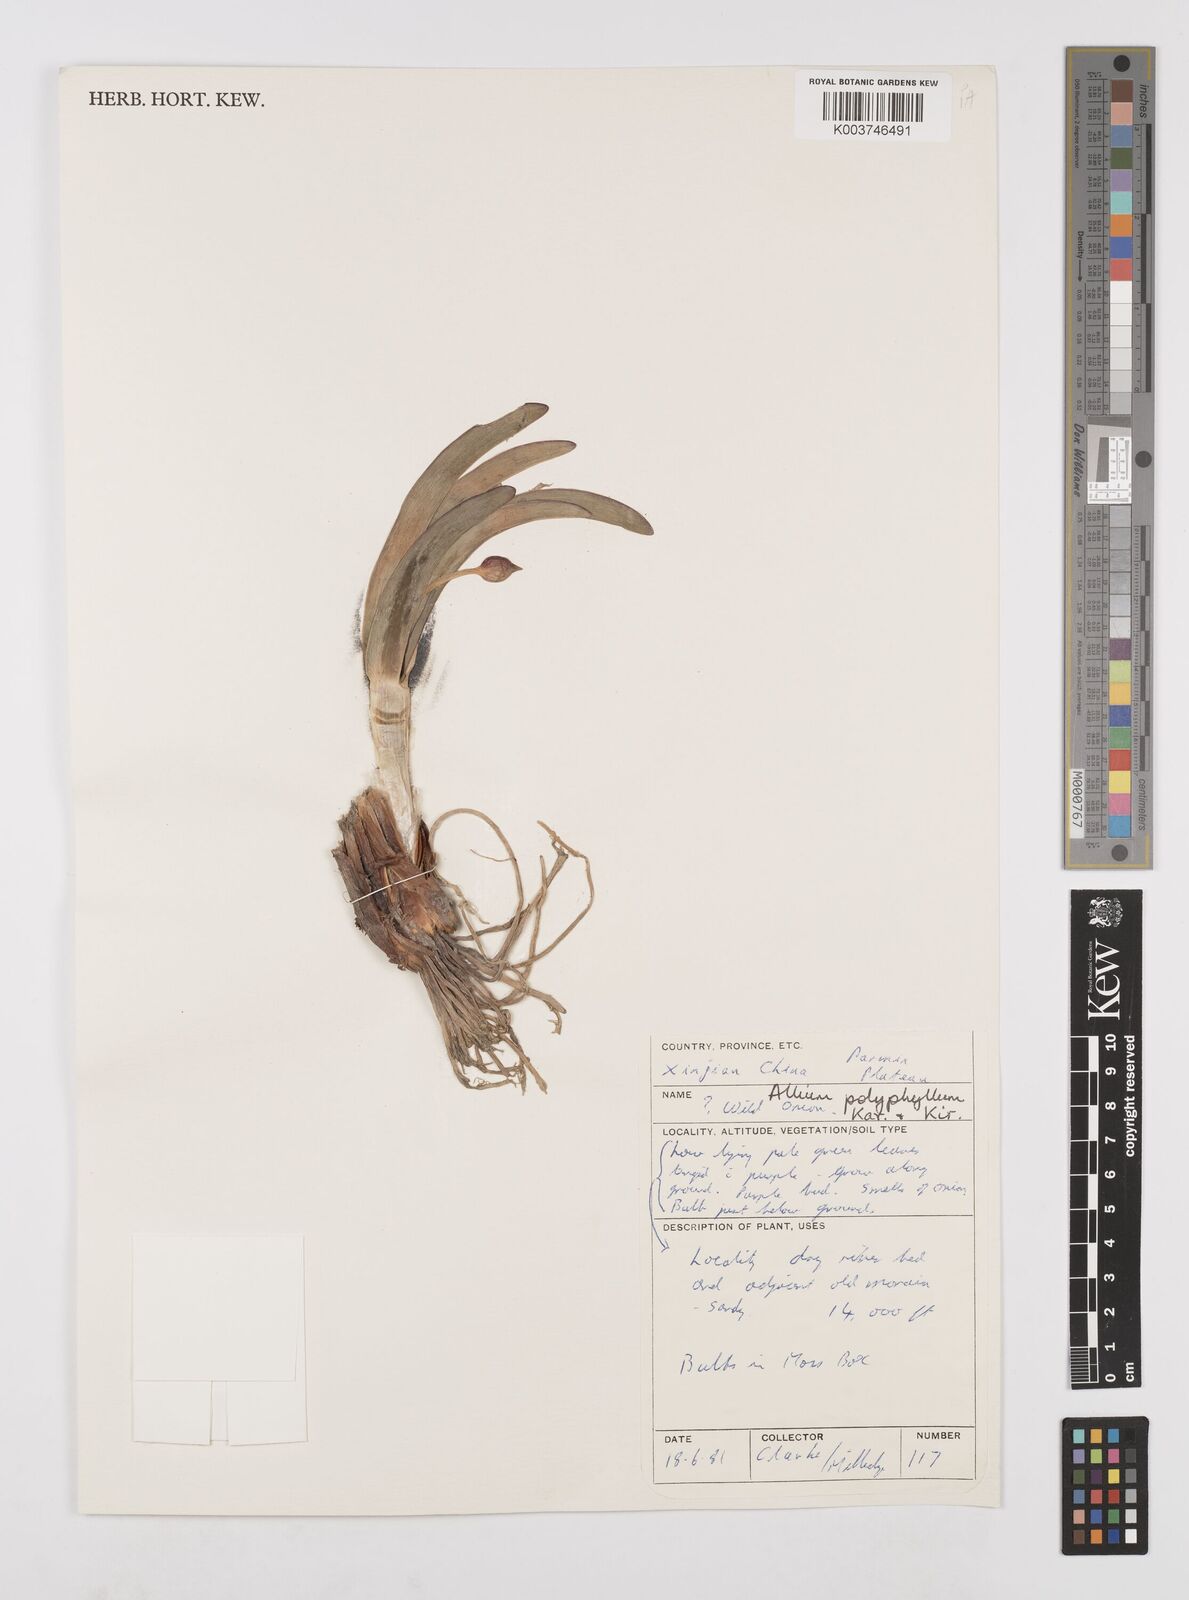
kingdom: Plantae
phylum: Tracheophyta
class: Liliopsida
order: Asparagales
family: Amaryllidaceae
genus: Allium
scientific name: Allium carolinianum
